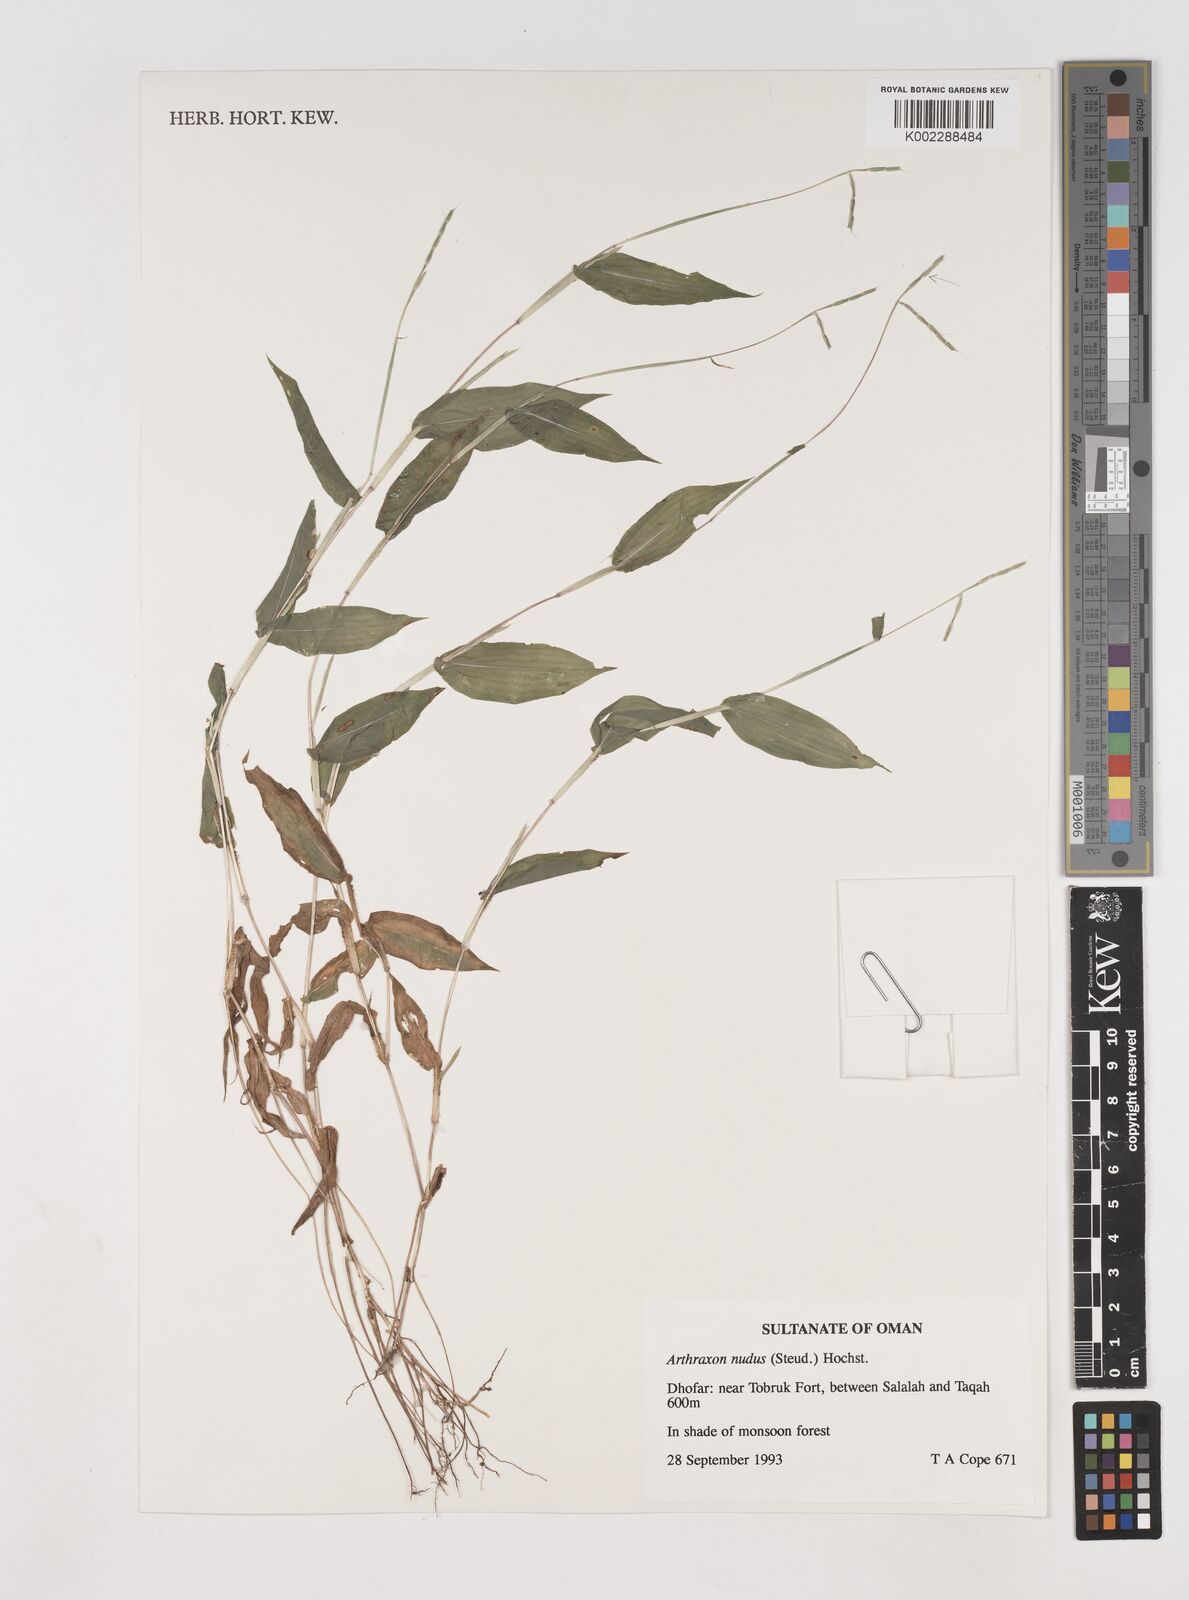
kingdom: Plantae
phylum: Tracheophyta
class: Liliopsida
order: Poales
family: Poaceae
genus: Arthraxon
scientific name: Arthraxon nudus
